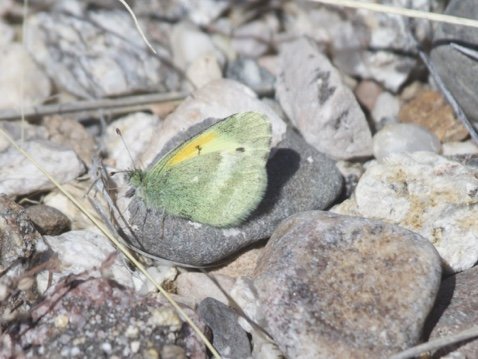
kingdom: Animalia
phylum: Arthropoda
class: Insecta
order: Lepidoptera
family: Pieridae
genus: Nathalis
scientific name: Nathalis iole
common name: Dainty Sulphur
